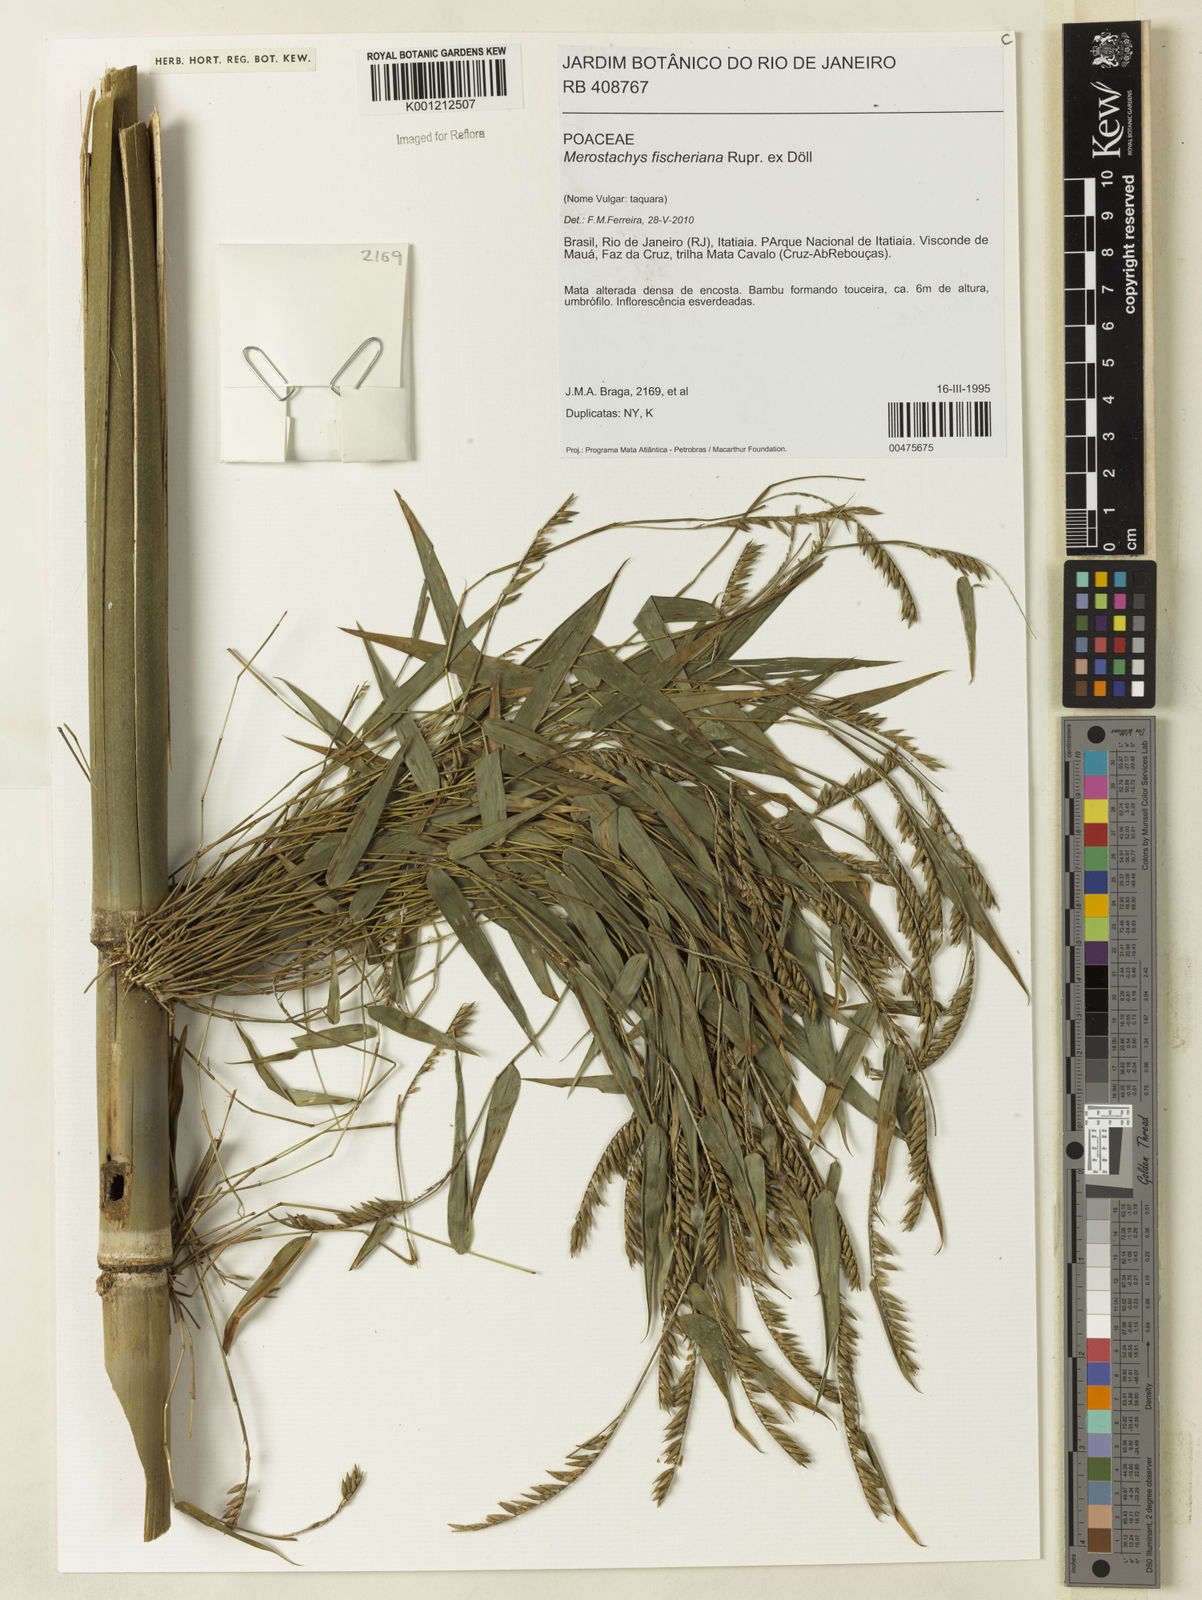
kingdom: Plantae
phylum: Tracheophyta
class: Liliopsida
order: Poales
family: Poaceae
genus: Merostachys
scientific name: Merostachys
